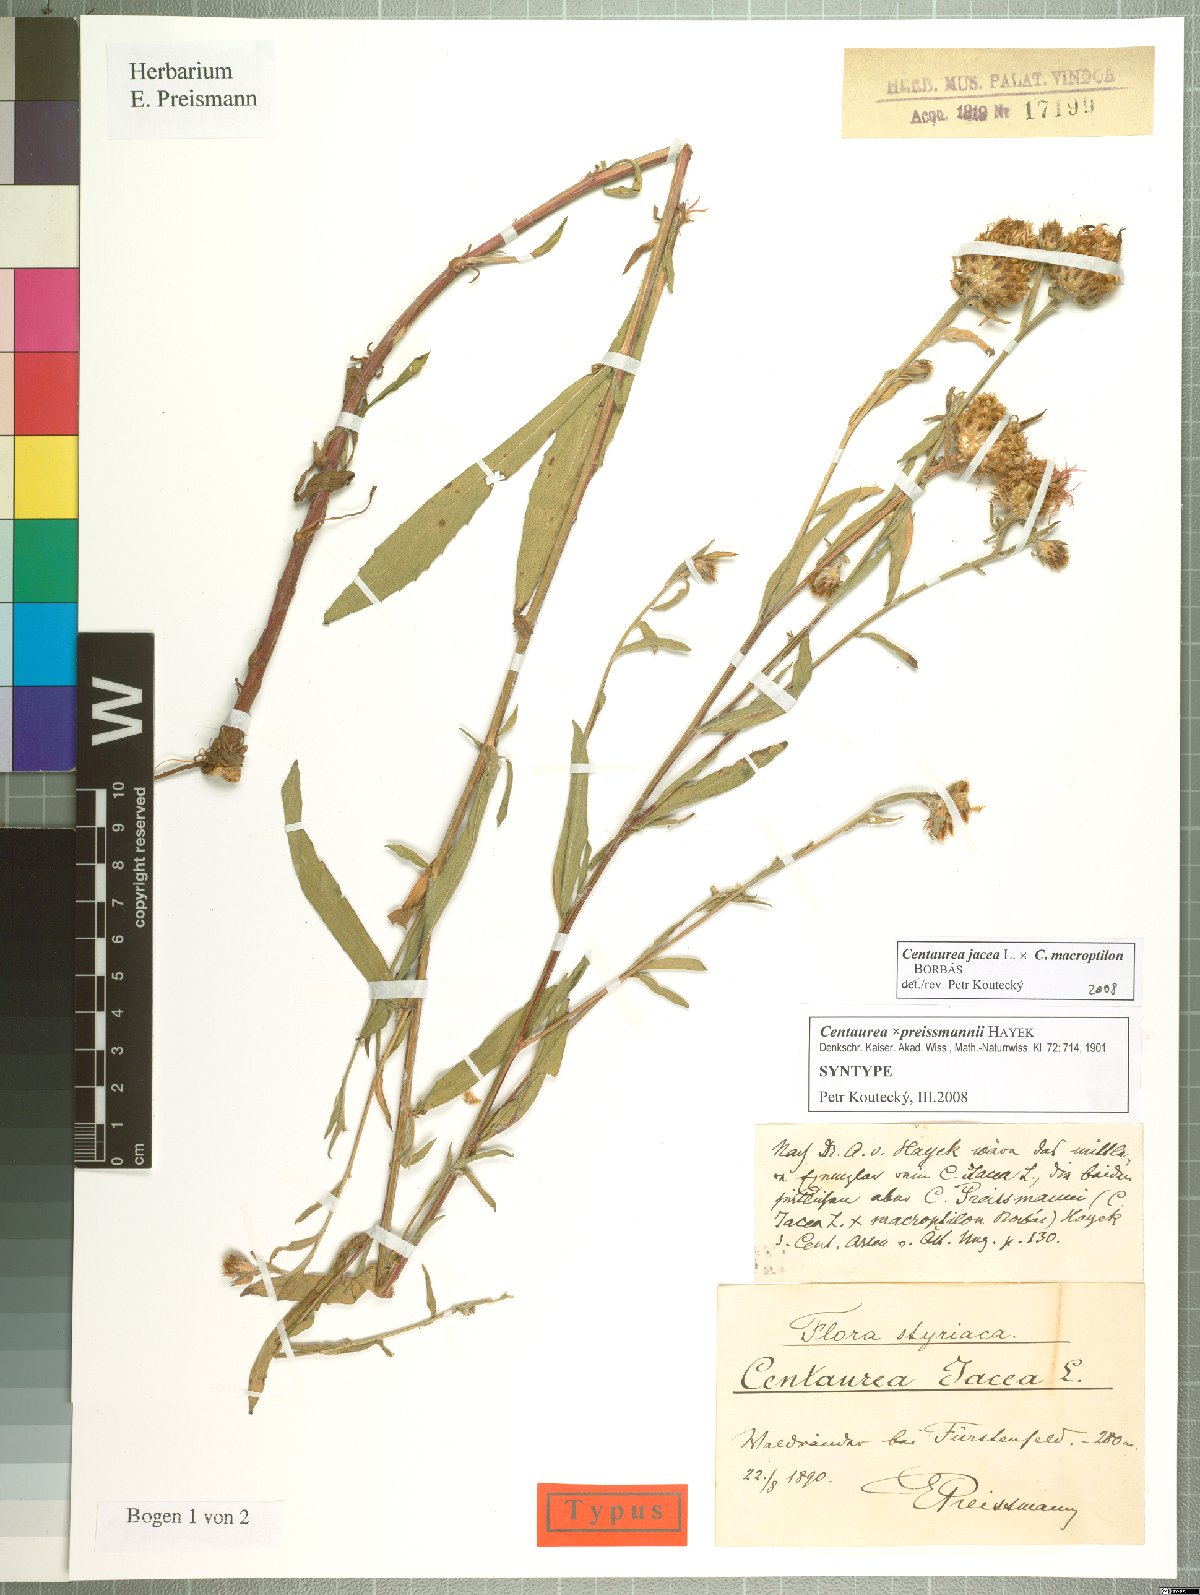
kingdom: Plantae
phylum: Tracheophyta
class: Magnoliopsida
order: Asterales
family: Asteraceae
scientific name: Asteraceae
